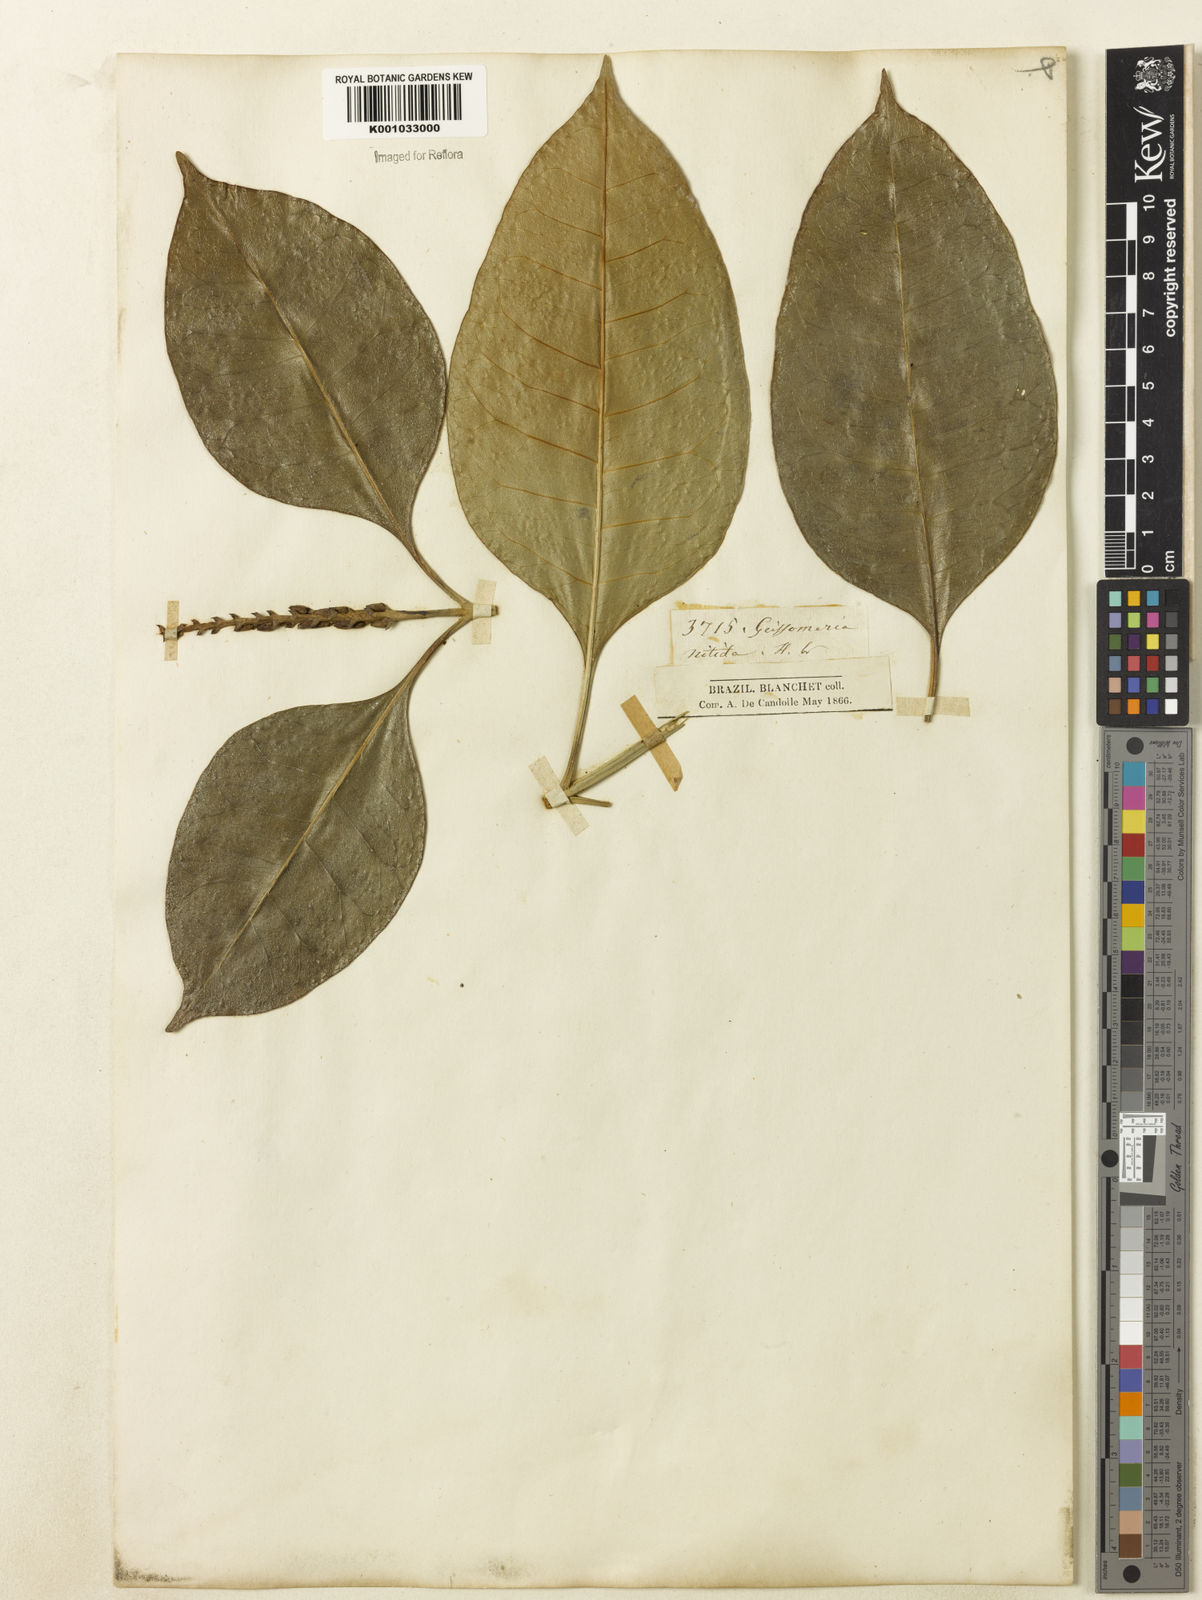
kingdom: Plantae
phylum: Tracheophyta
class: Magnoliopsida
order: Lamiales
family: Acanthaceae
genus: Aphelandra
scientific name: Aphelandra nitida
